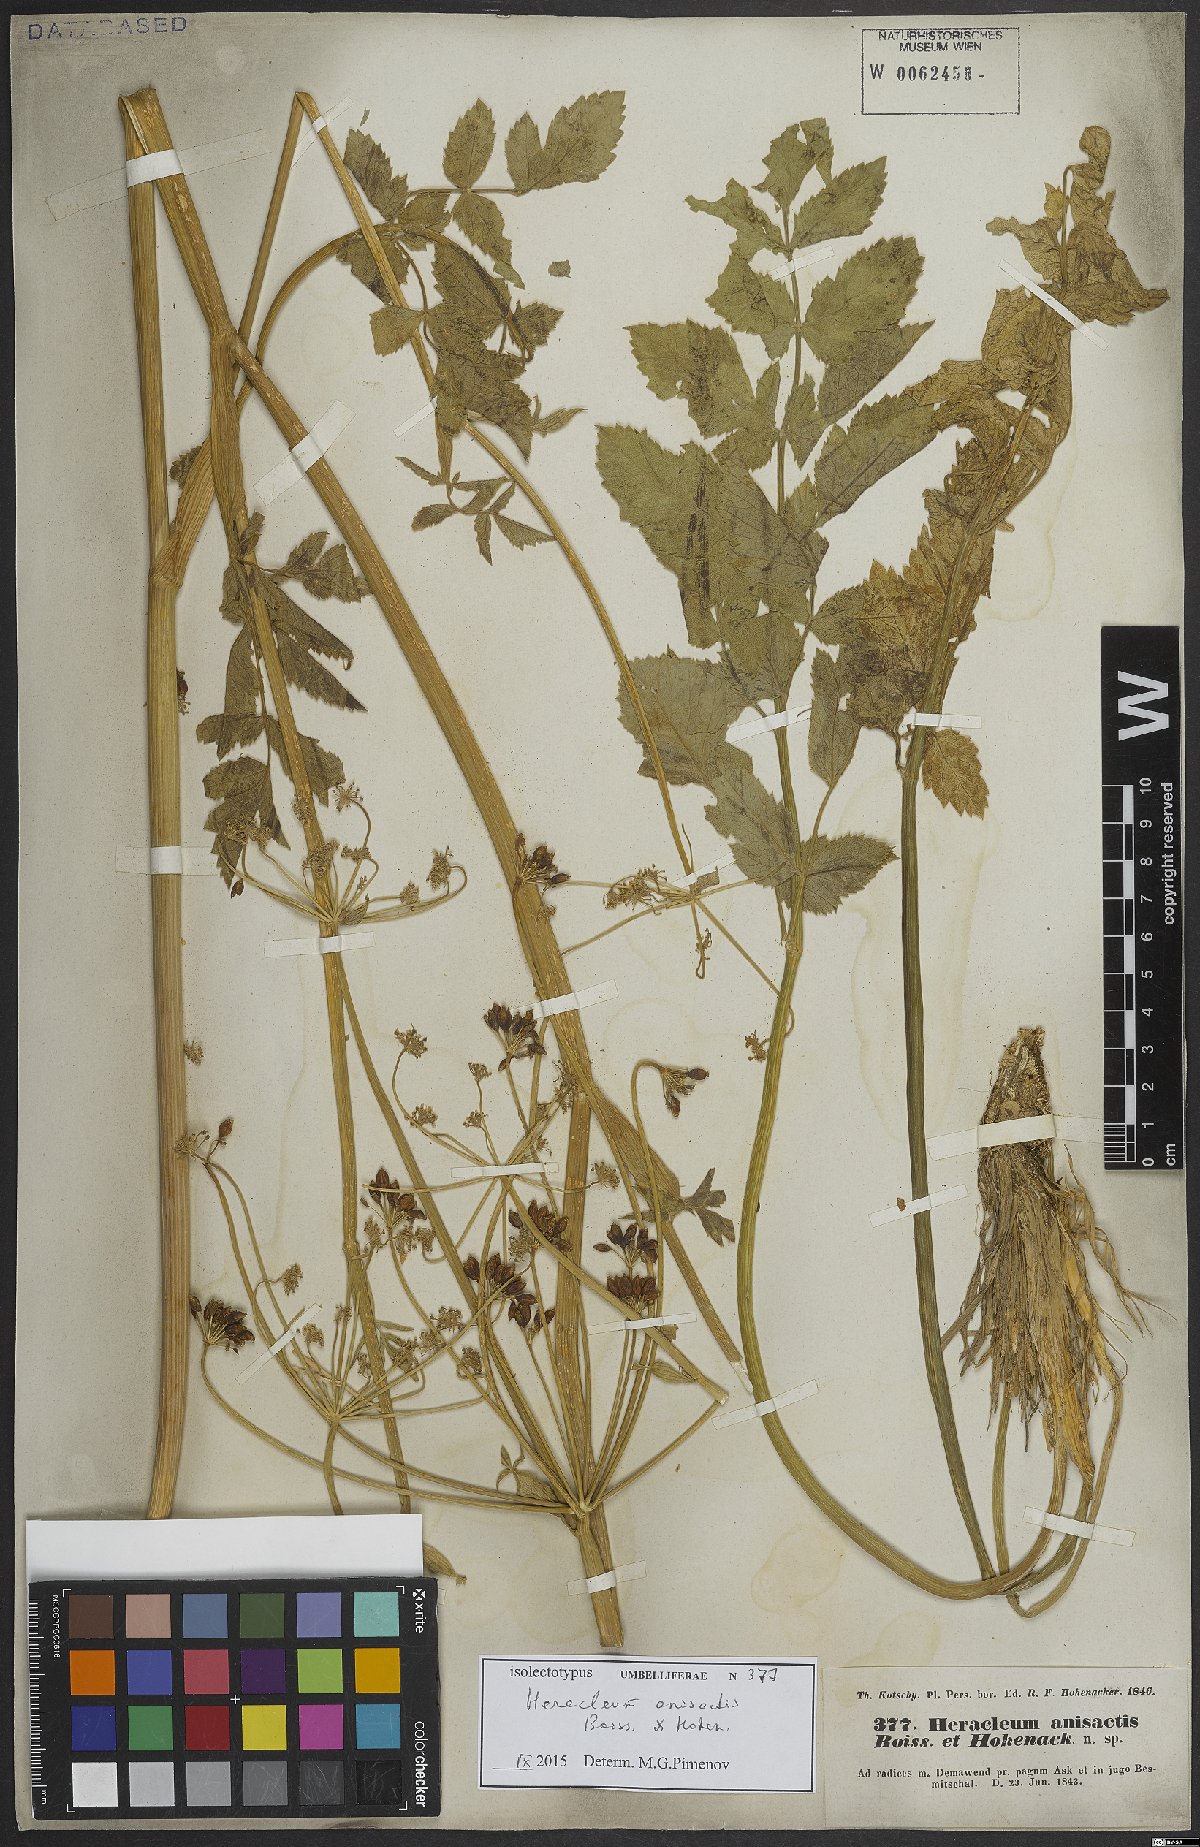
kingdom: Plantae
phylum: Tracheophyta
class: Magnoliopsida
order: Apiales
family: Apiaceae
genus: Heracleum
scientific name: Heracleum anisactis
